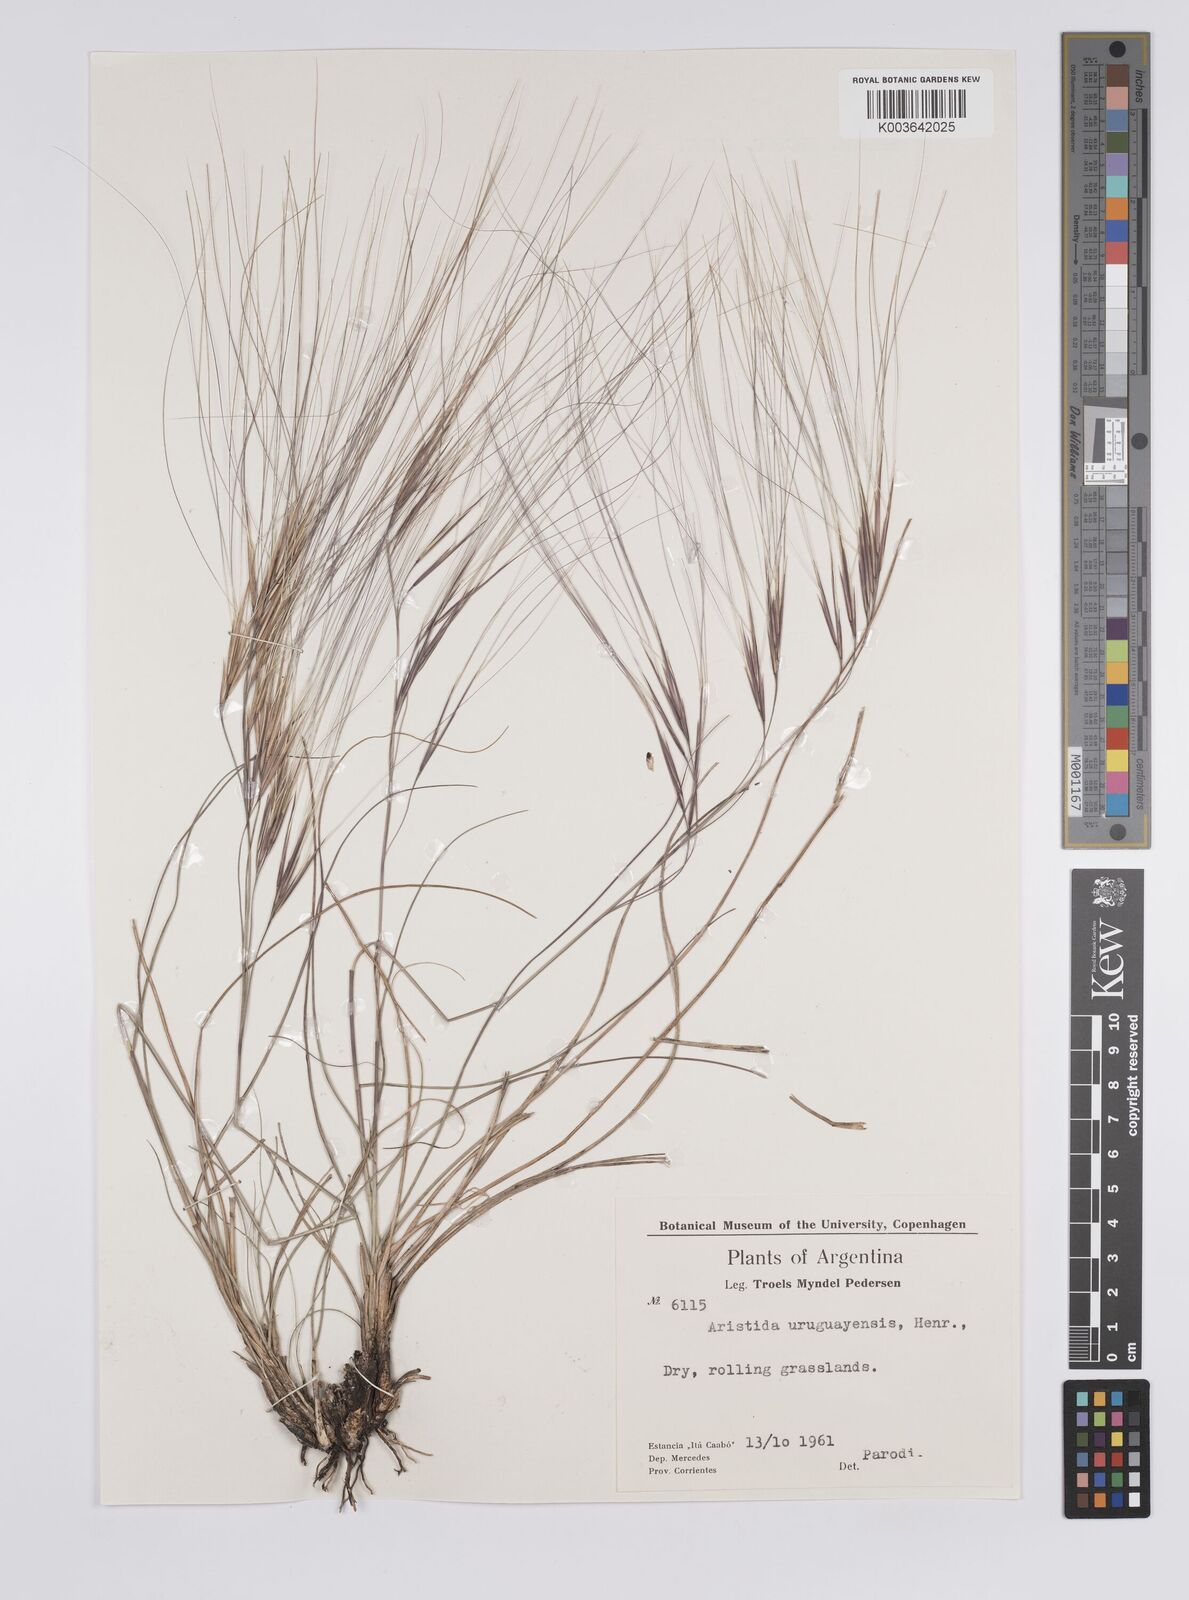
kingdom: Plantae
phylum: Tracheophyta
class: Liliopsida
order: Poales
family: Poaceae
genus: Aristida
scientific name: Aristida uruguayensis
